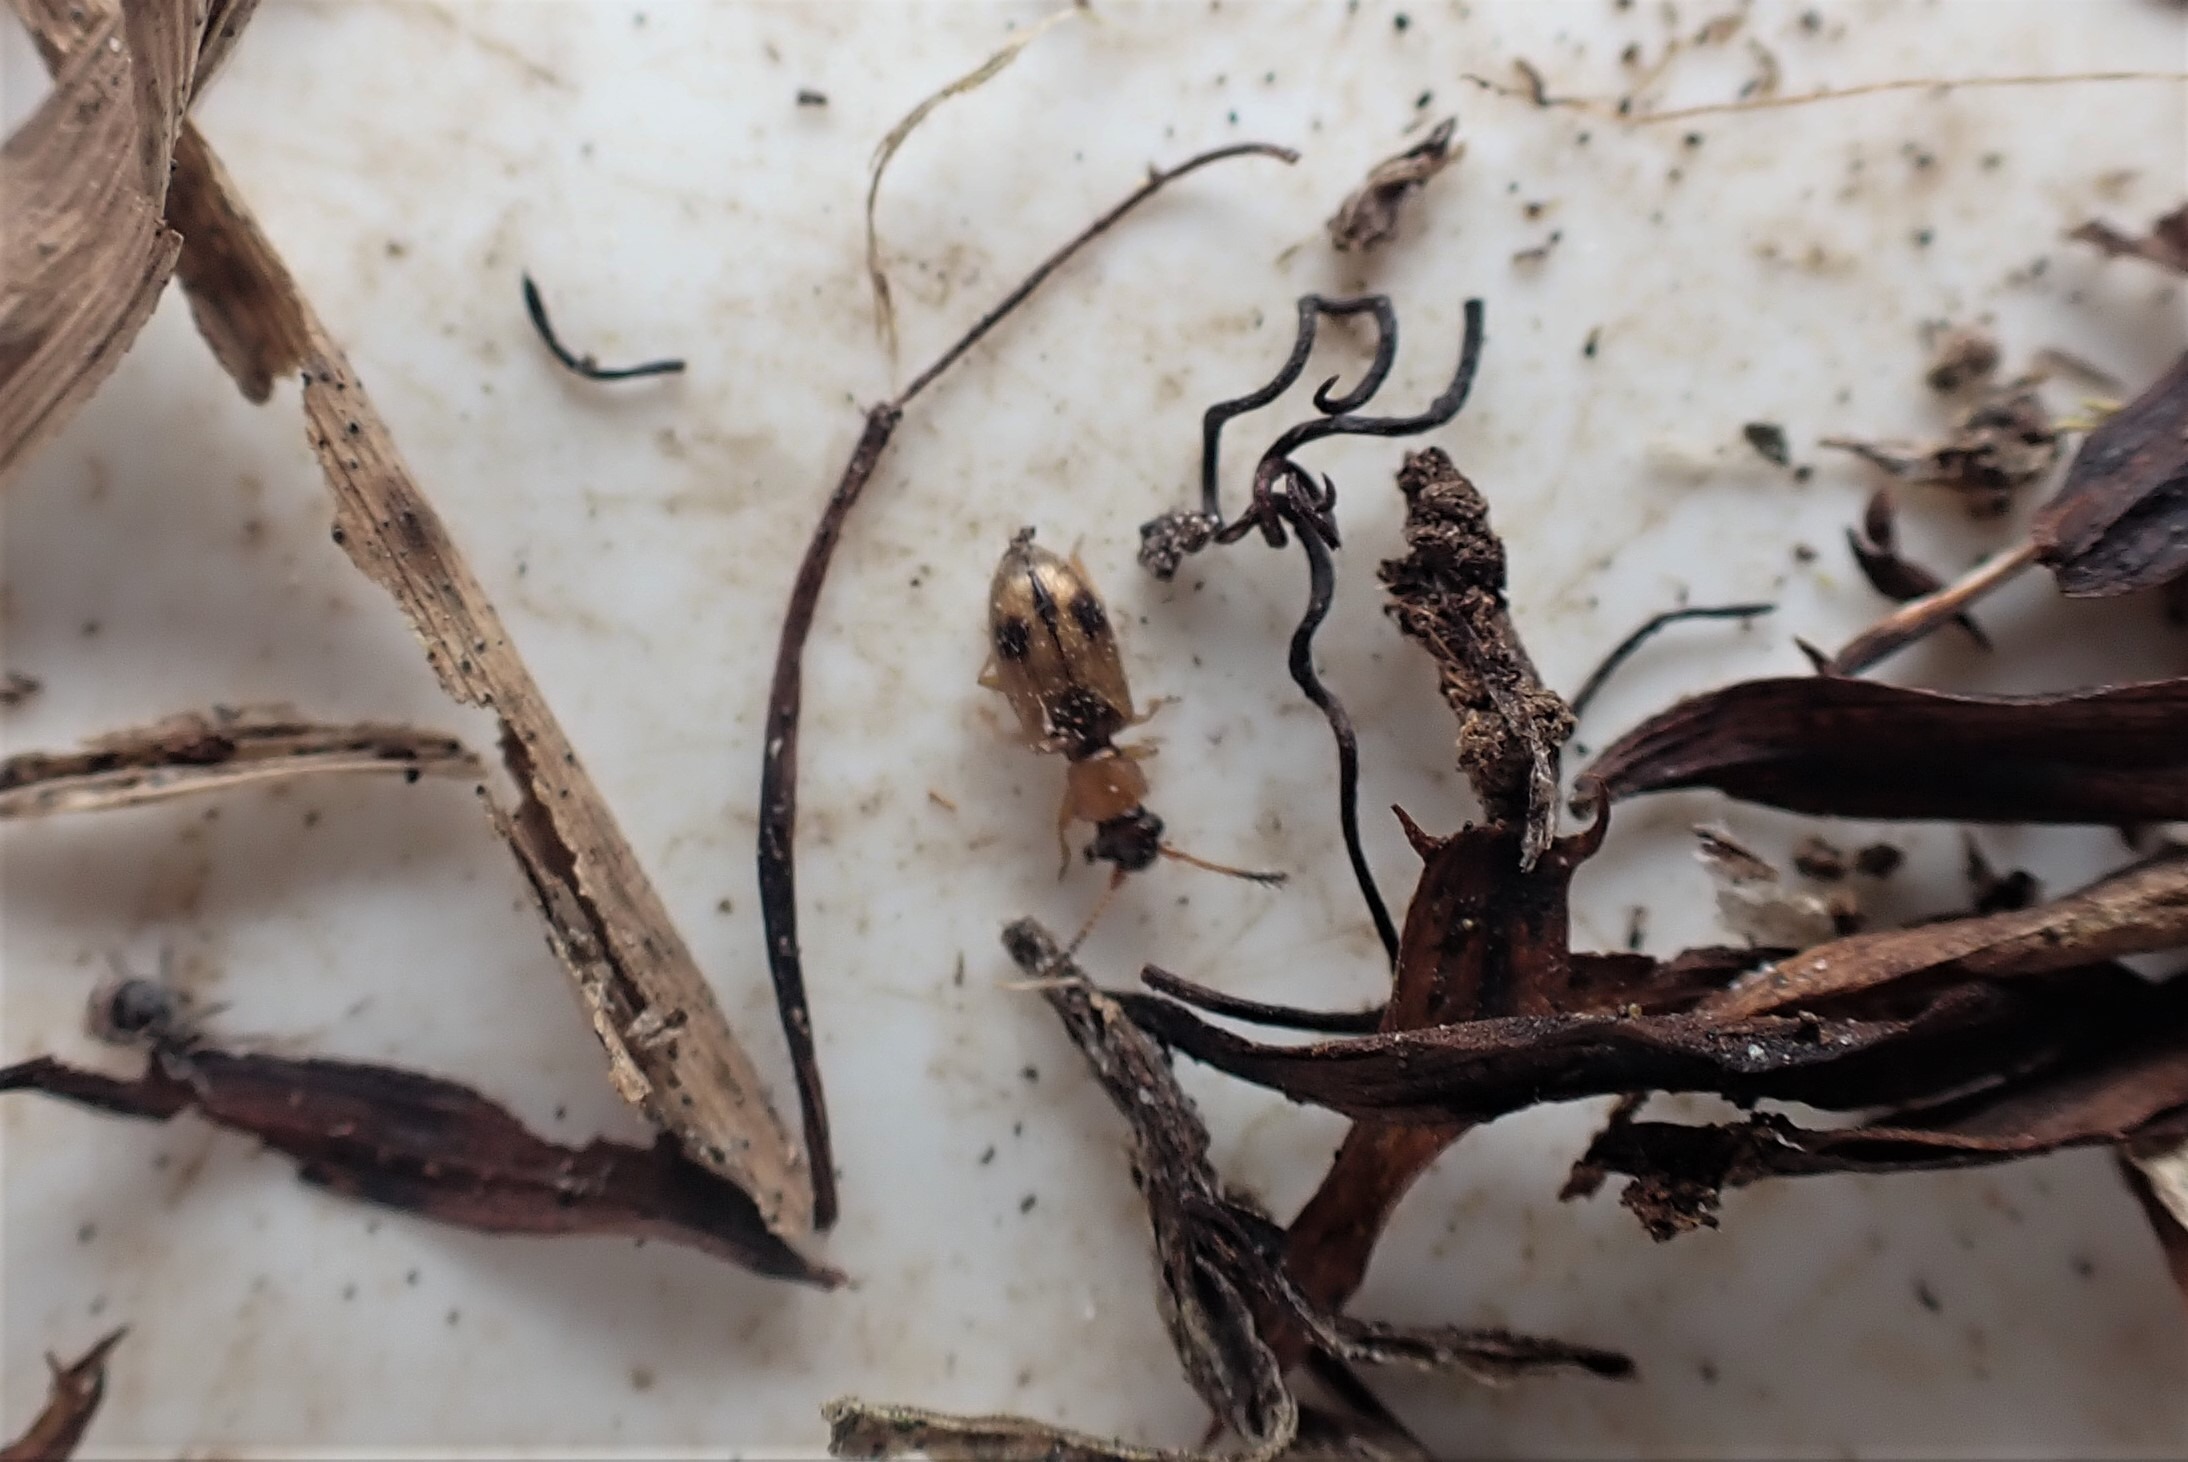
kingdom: Animalia
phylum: Arthropoda
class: Insecta
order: Coleoptera
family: Silvanidae
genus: Psammoecus
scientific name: Psammoecus bipunctatus
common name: Tagrørsfladbille
